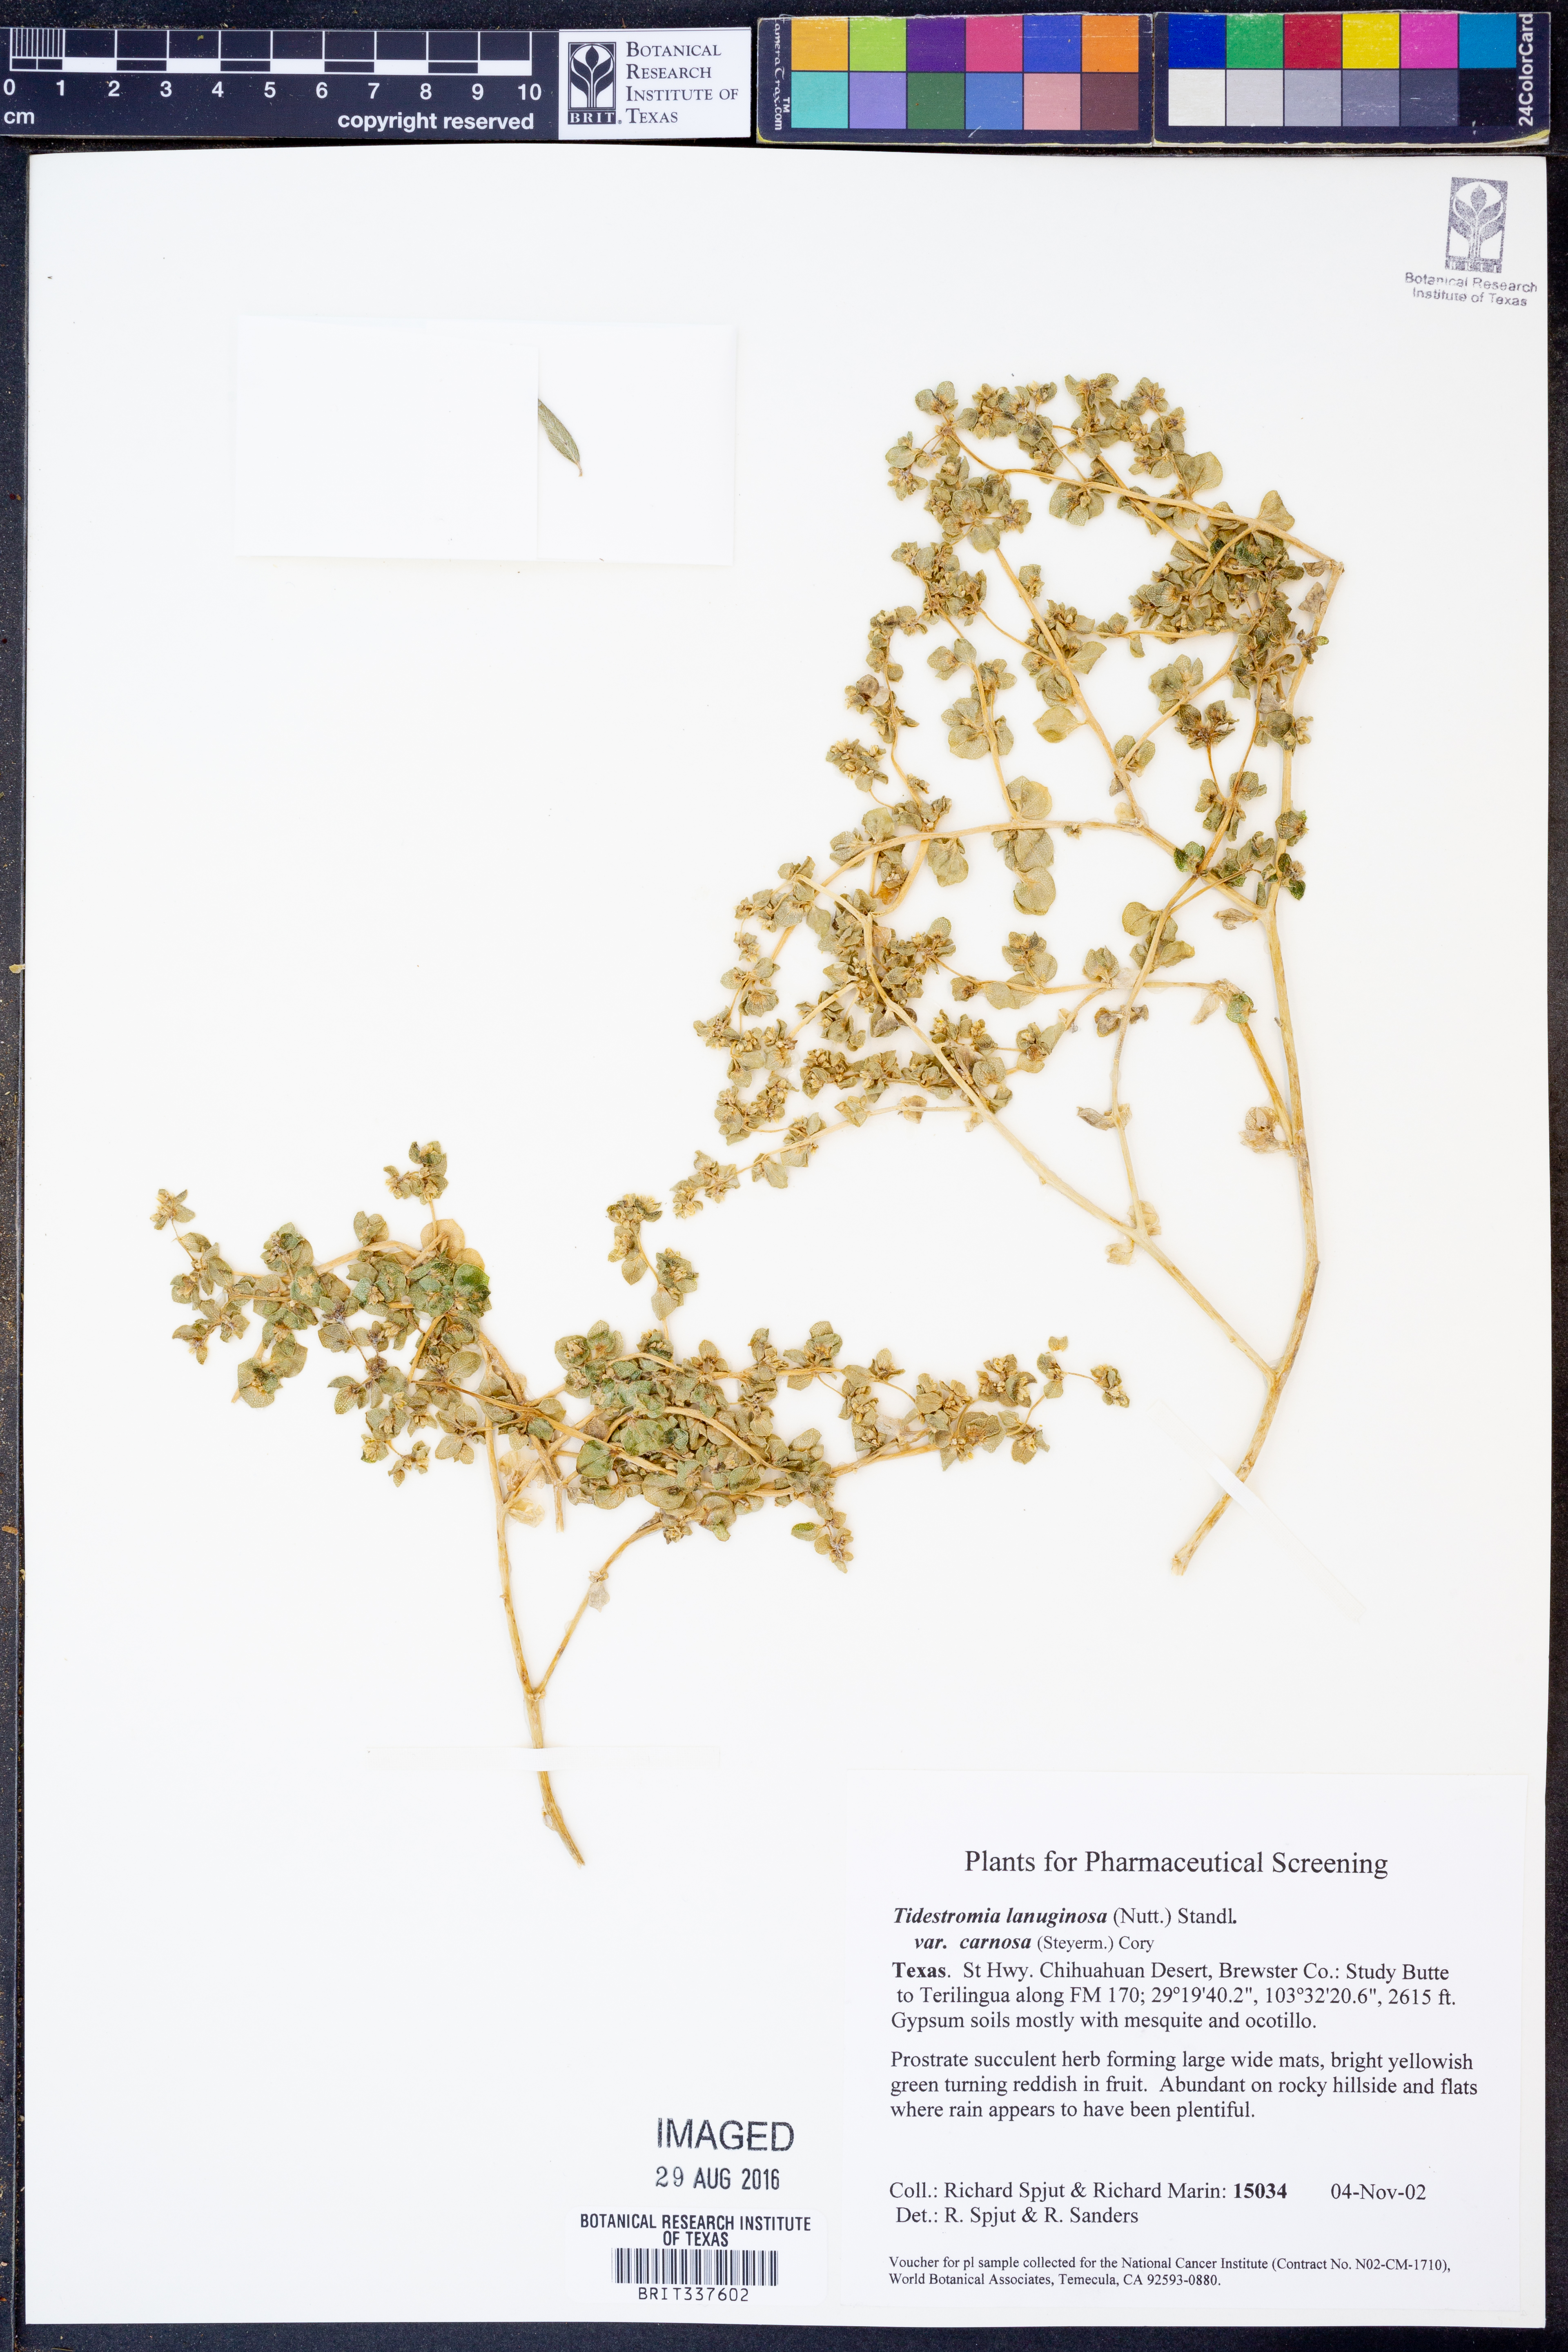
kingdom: Plantae
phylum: Tracheophyta
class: Magnoliopsida
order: Caryophyllales
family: Amaranthaceae
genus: Tidestromia
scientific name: Tidestromia carnosa
